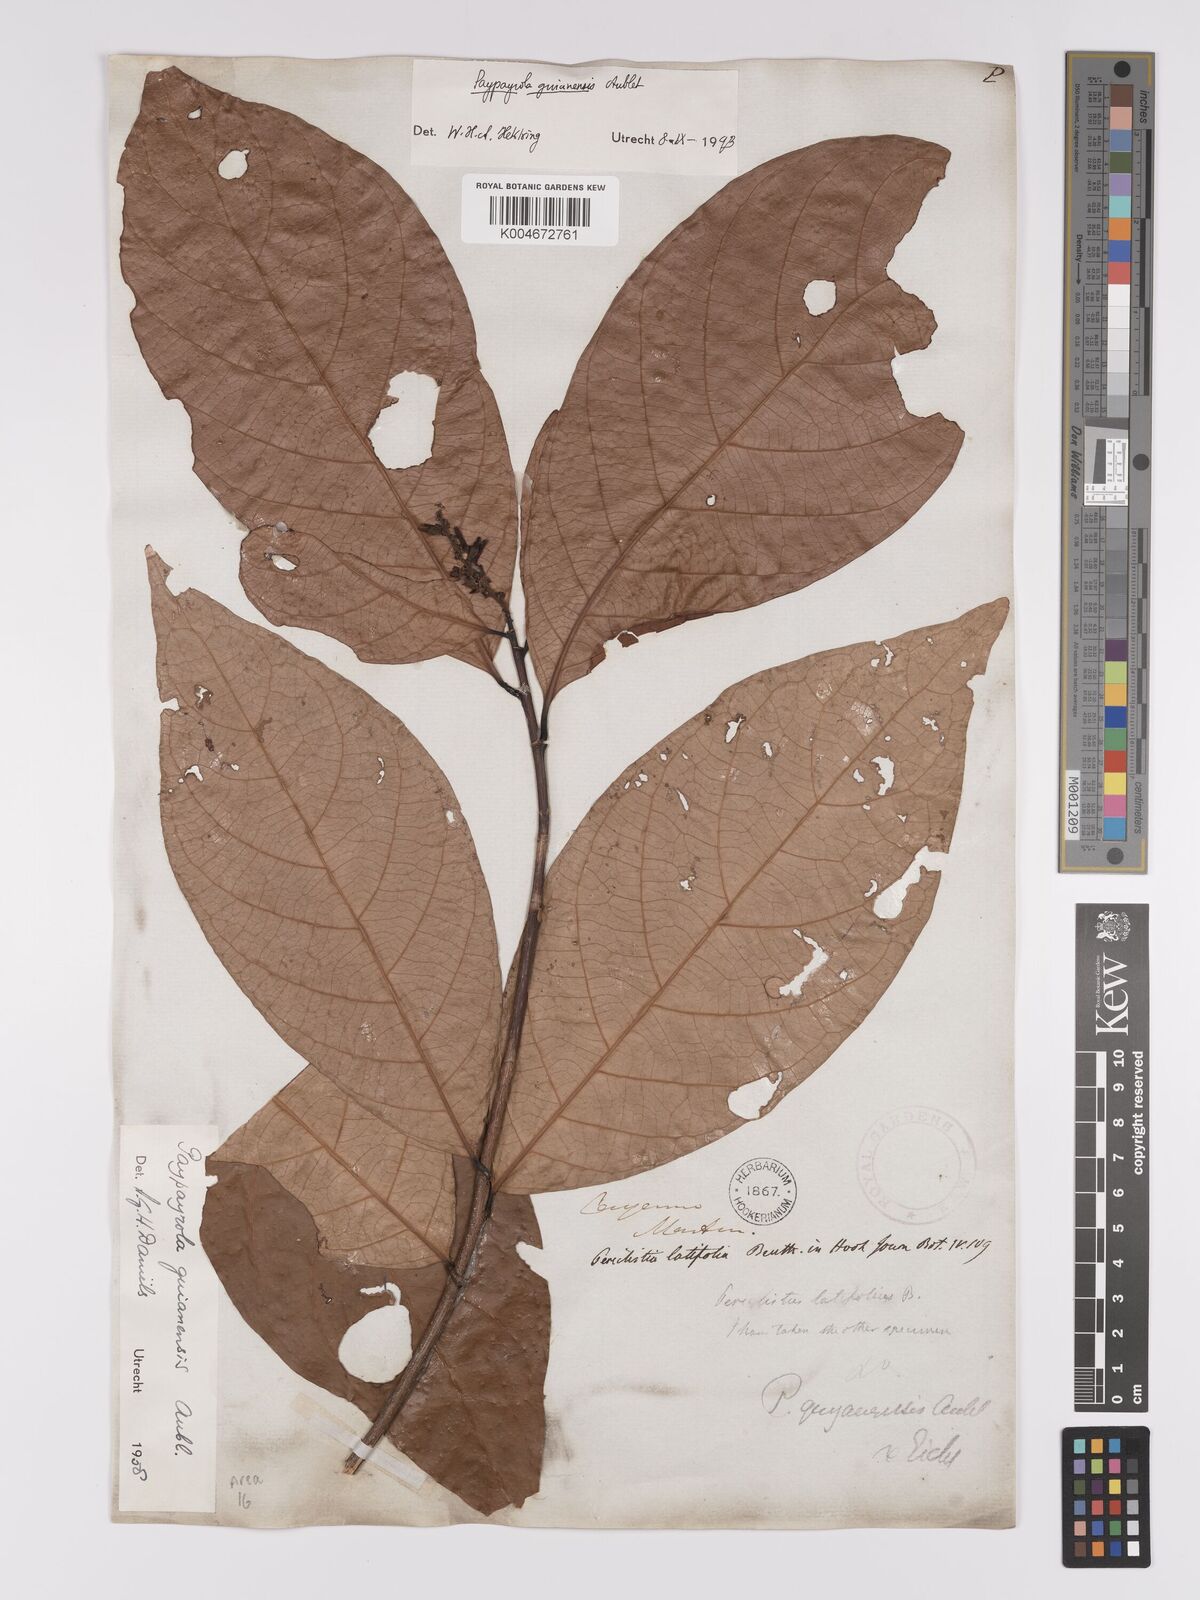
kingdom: Plantae
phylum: Tracheophyta
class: Magnoliopsida
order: Malpighiales
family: Violaceae
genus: Paypayrola
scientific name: Paypayrola guianensis
